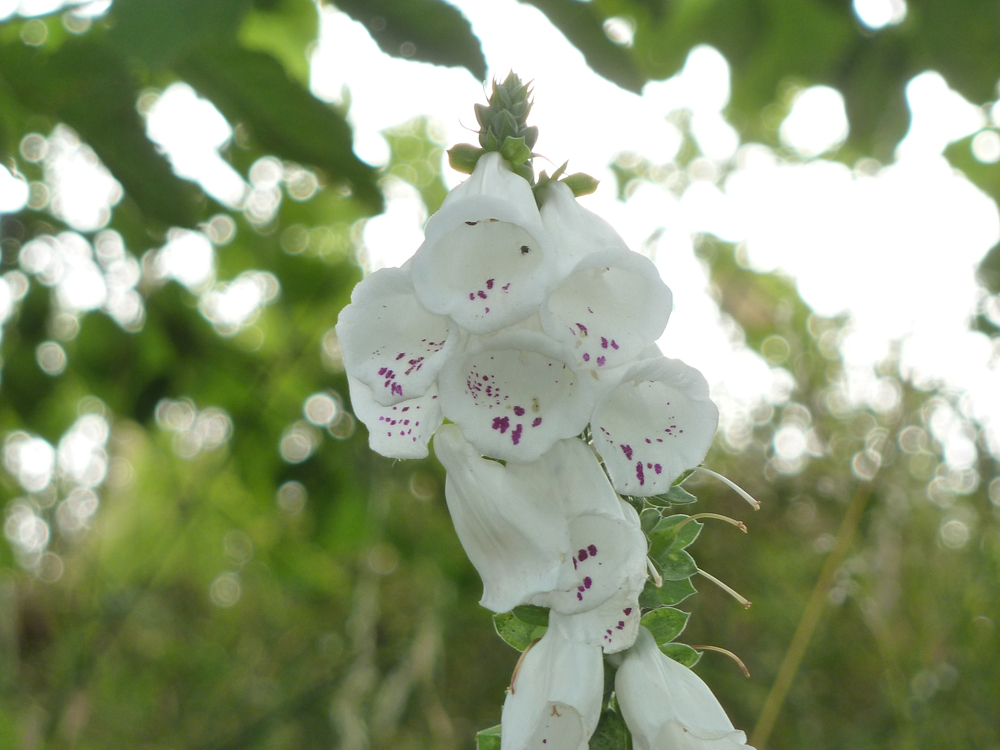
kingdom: Plantae
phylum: Tracheophyta
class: Magnoliopsida
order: Lamiales
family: Plantaginaceae
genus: Digitalis
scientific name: Digitalis purpurea
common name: Foxglove
